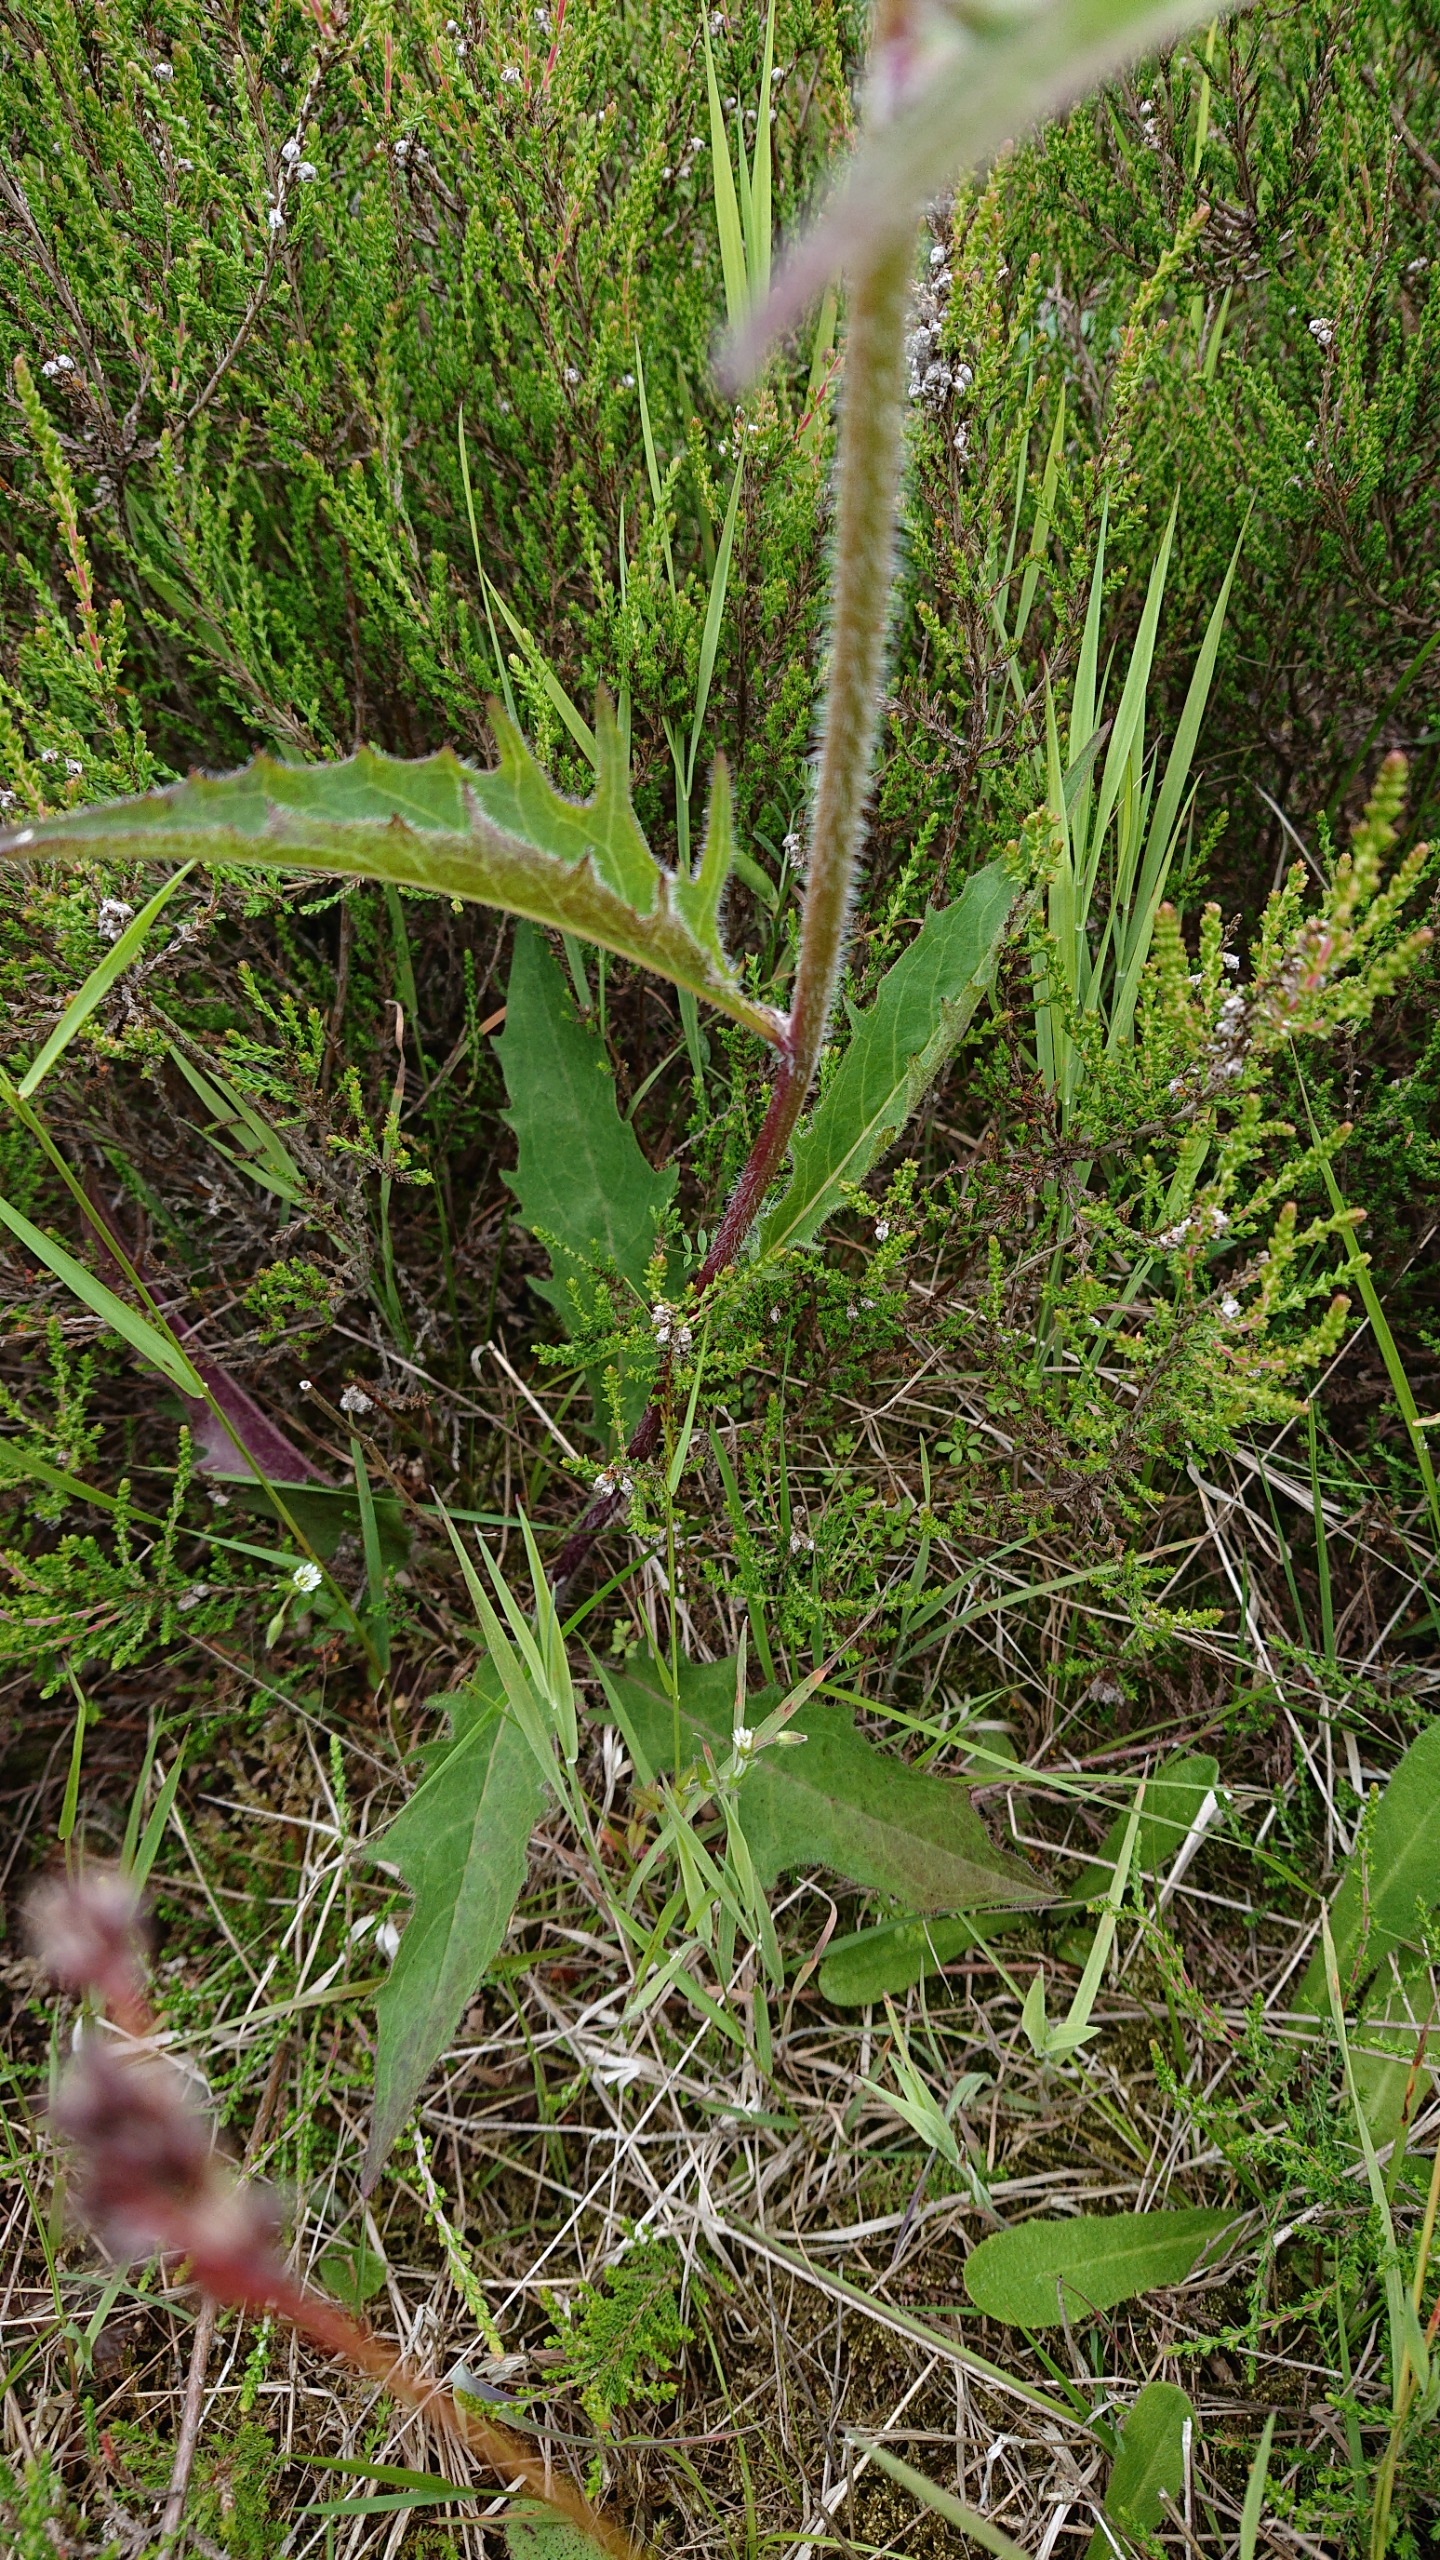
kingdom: Plantae
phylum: Tracheophyta
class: Magnoliopsida
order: Asterales
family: Asteraceae
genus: Hieracium
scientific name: Hieracium
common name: Høgeurt (Hieracium-slægten)
